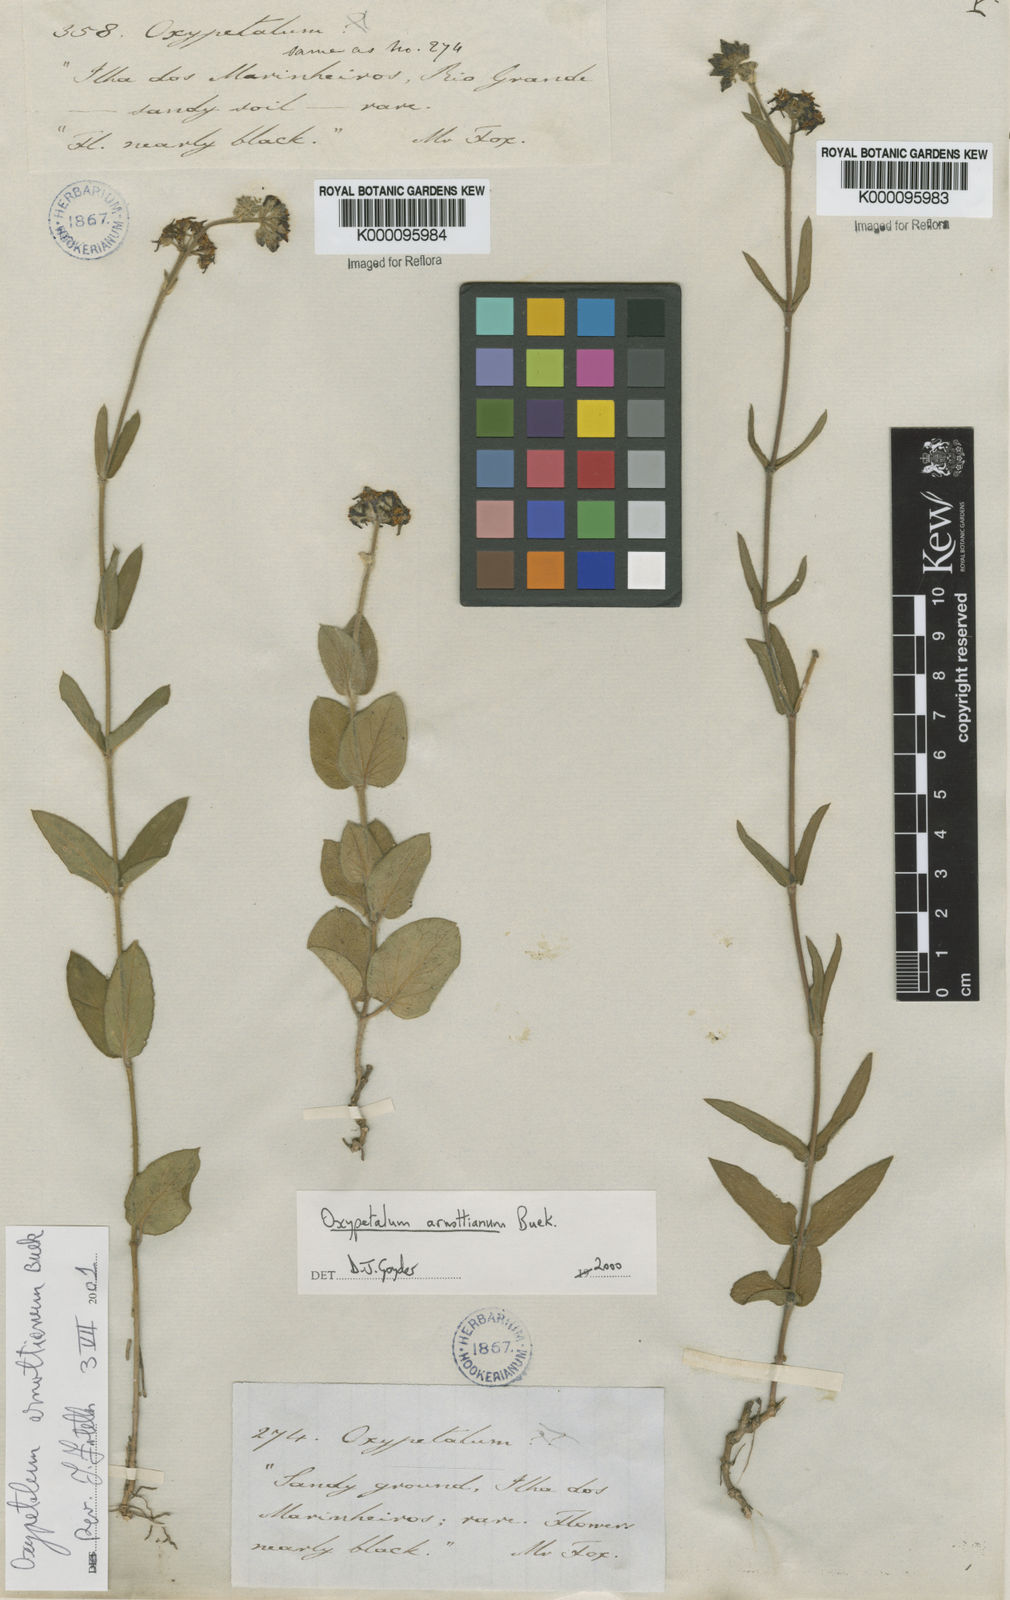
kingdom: Plantae
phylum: Tracheophyta
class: Magnoliopsida
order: Gentianales
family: Apocynaceae
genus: Oxypetalum
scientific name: Oxypetalum arnottianum
